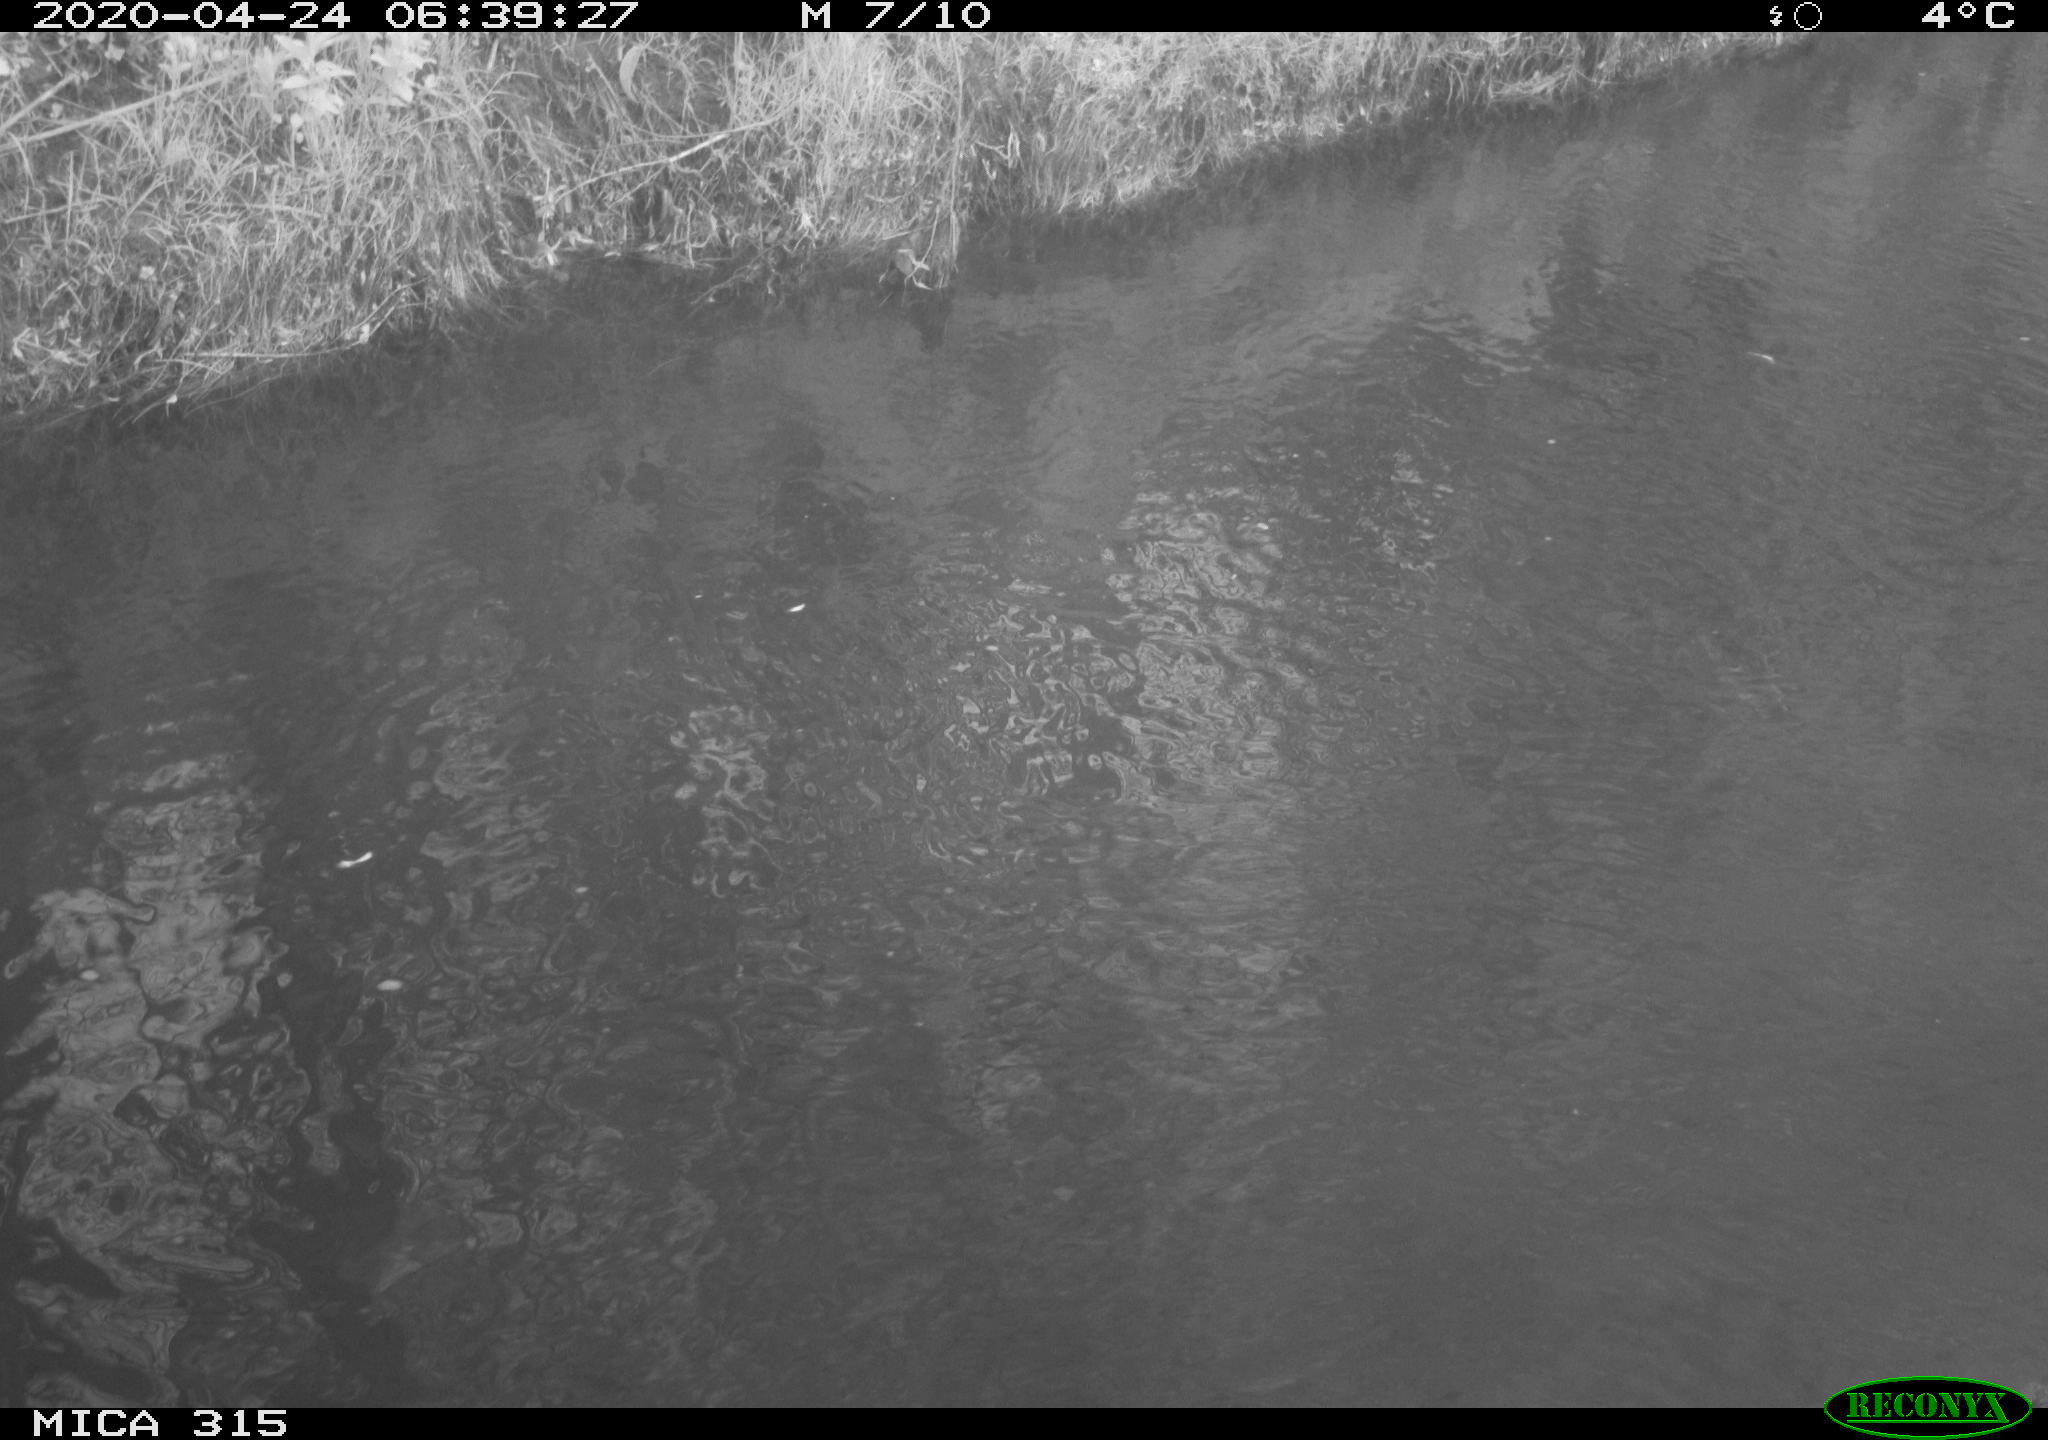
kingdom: Animalia
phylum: Chordata
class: Aves
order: Pelecaniformes
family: Ardeidae
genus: Ardea
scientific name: Ardea cinerea
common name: Grey heron
